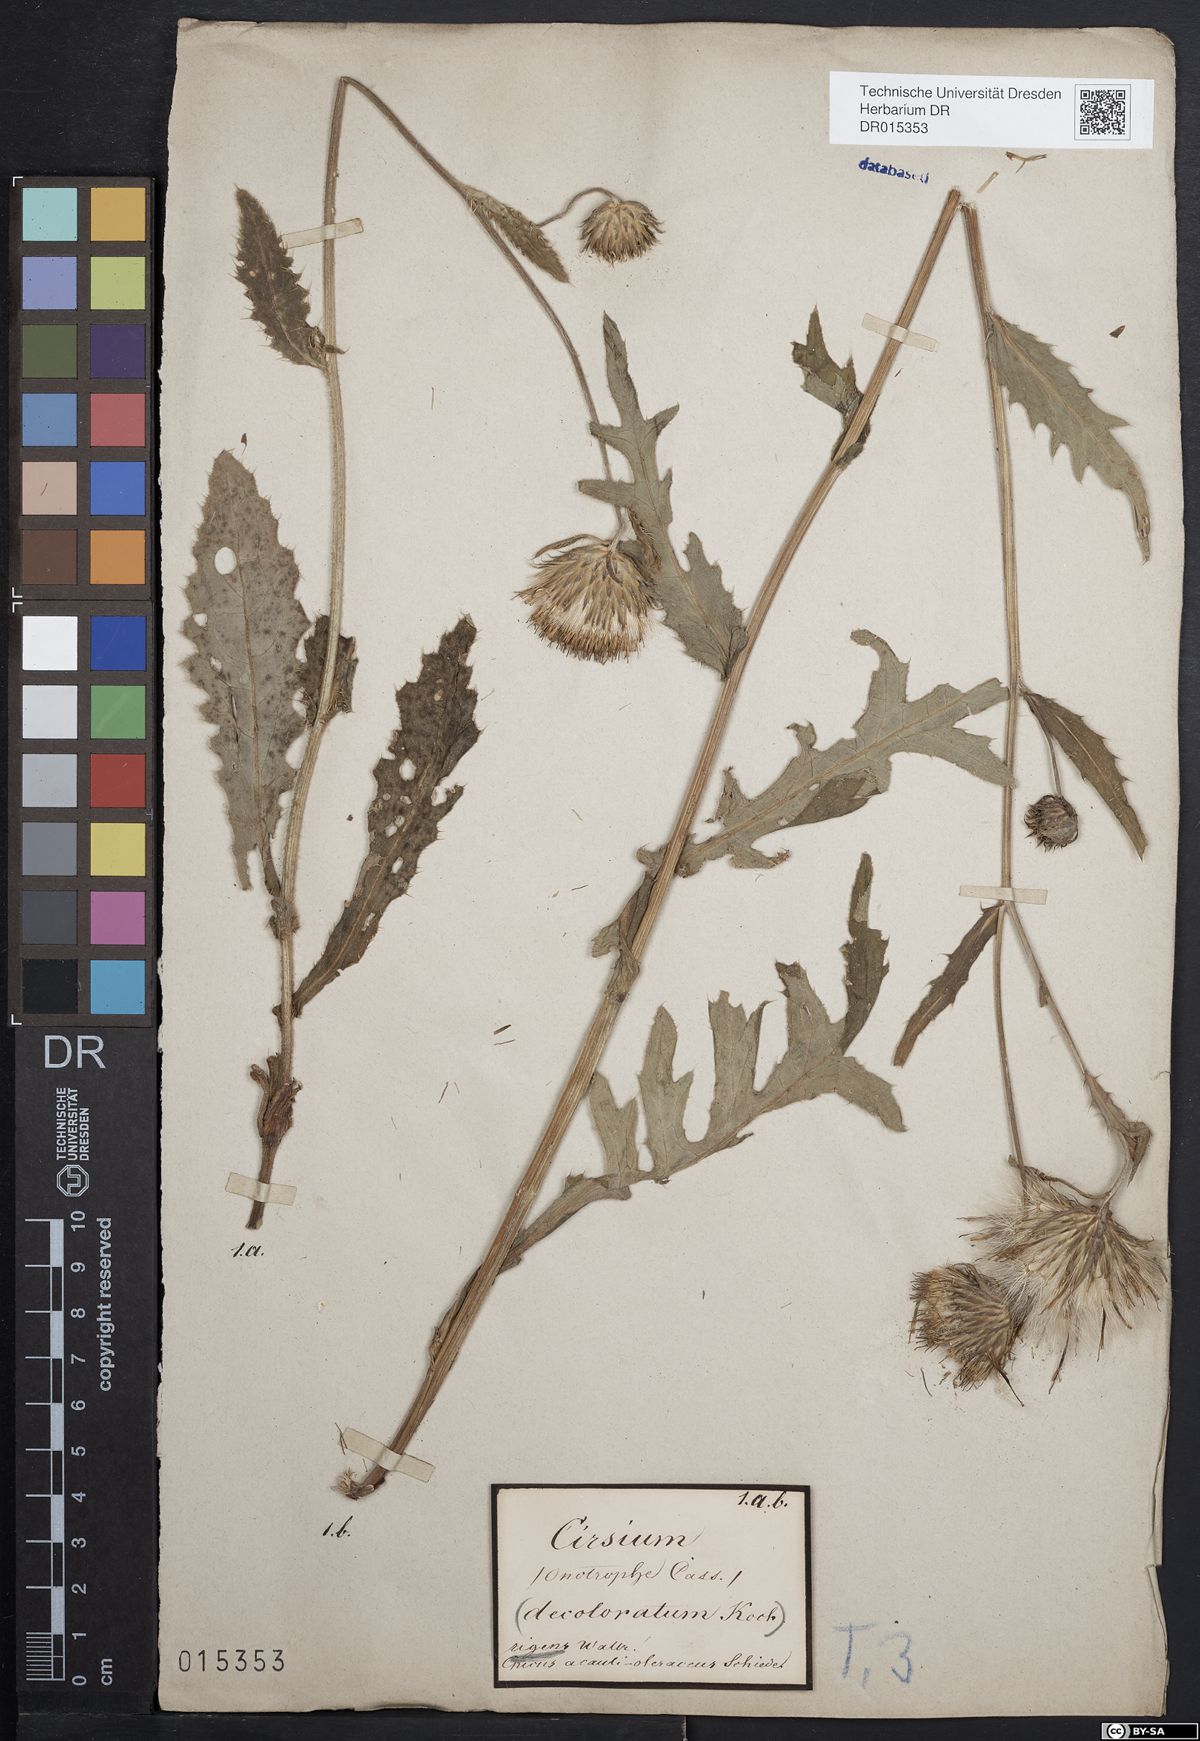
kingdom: Plantae
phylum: Tracheophyta
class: Magnoliopsida
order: Asterales
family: Asteraceae
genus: Cirsium
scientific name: Cirsium rigens
